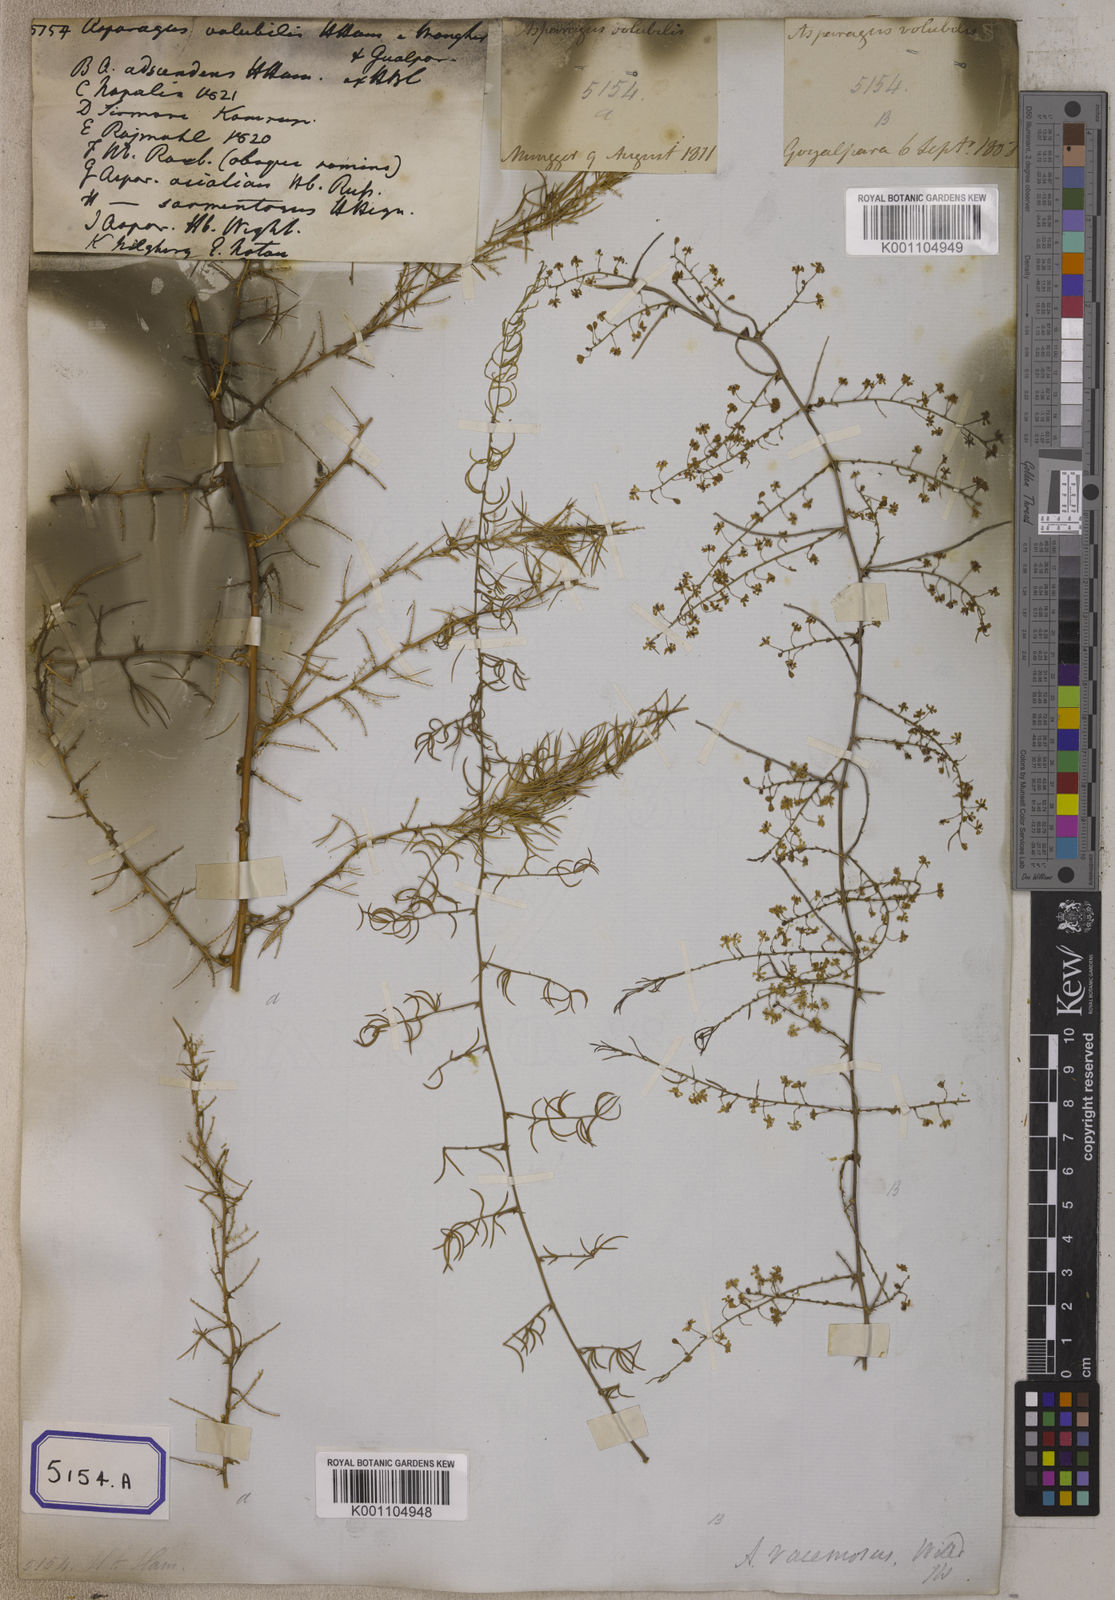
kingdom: Plantae
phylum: Tracheophyta
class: Liliopsida
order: Asparagales
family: Asparagaceae
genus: Asparagus
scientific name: Asparagus
